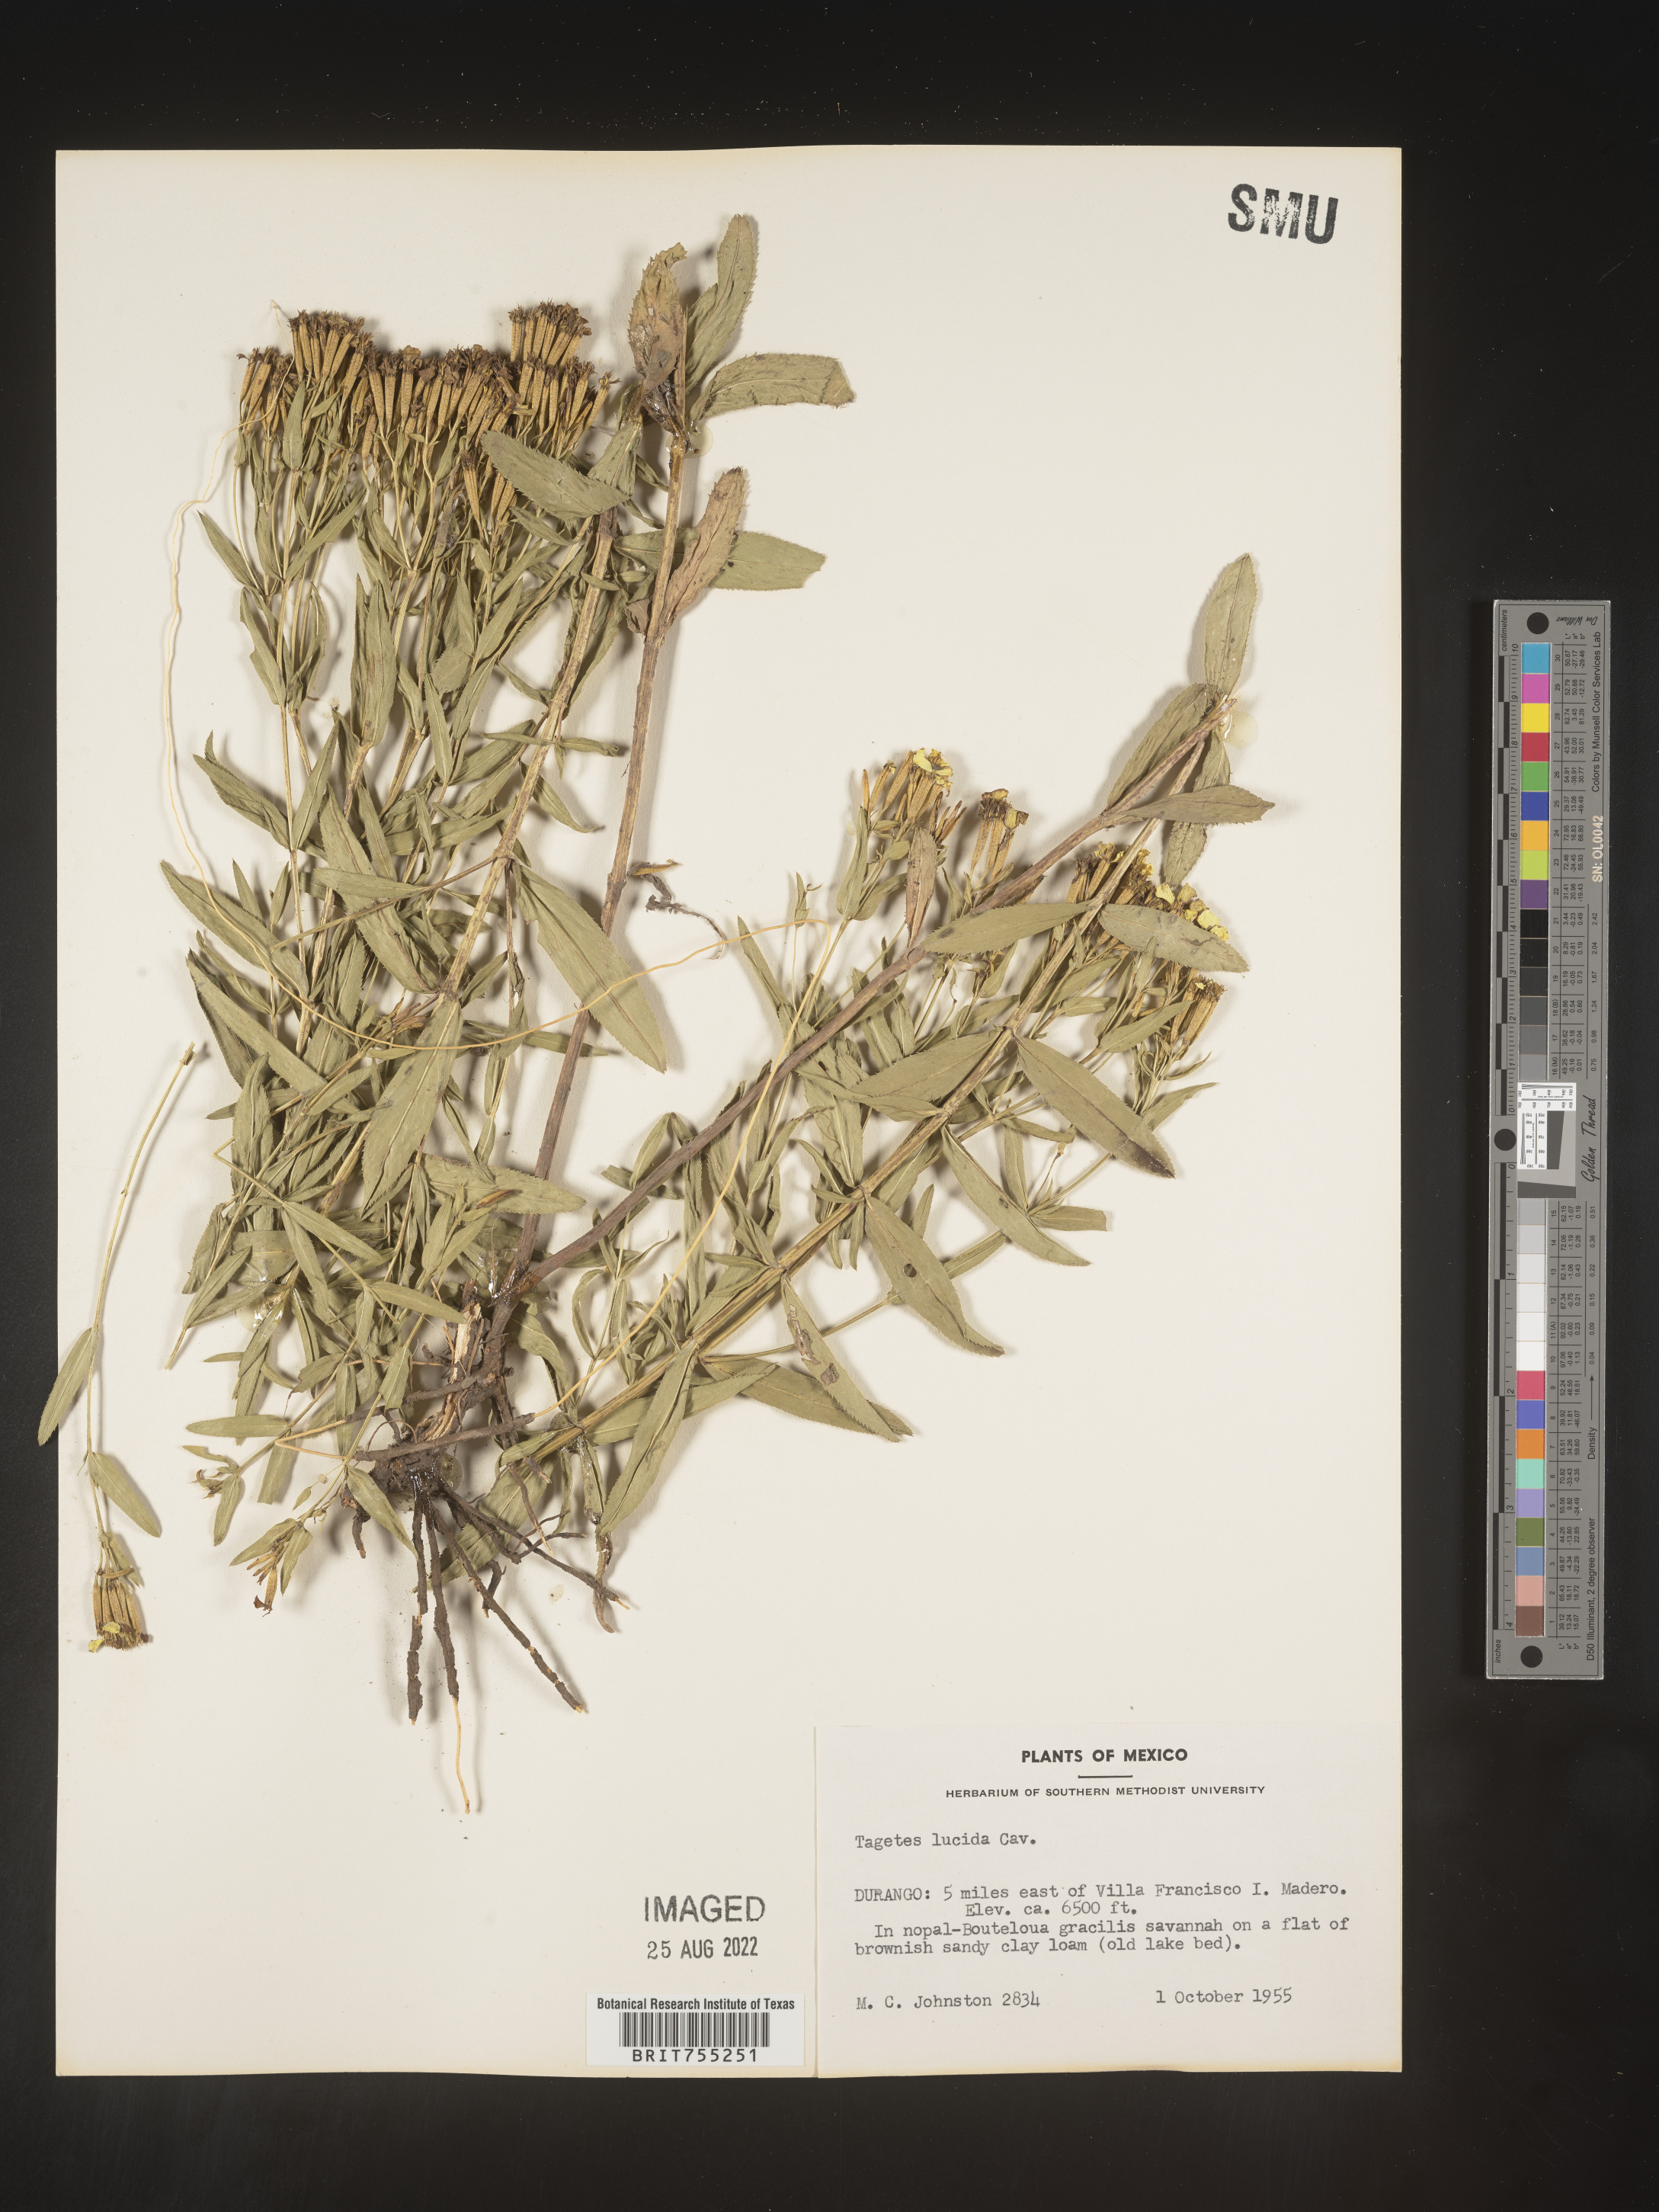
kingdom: Plantae
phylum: Tracheophyta
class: Magnoliopsida
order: Asterales
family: Asteraceae
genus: Tagetes
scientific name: Tagetes lucida
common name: Sweetscented marigold
